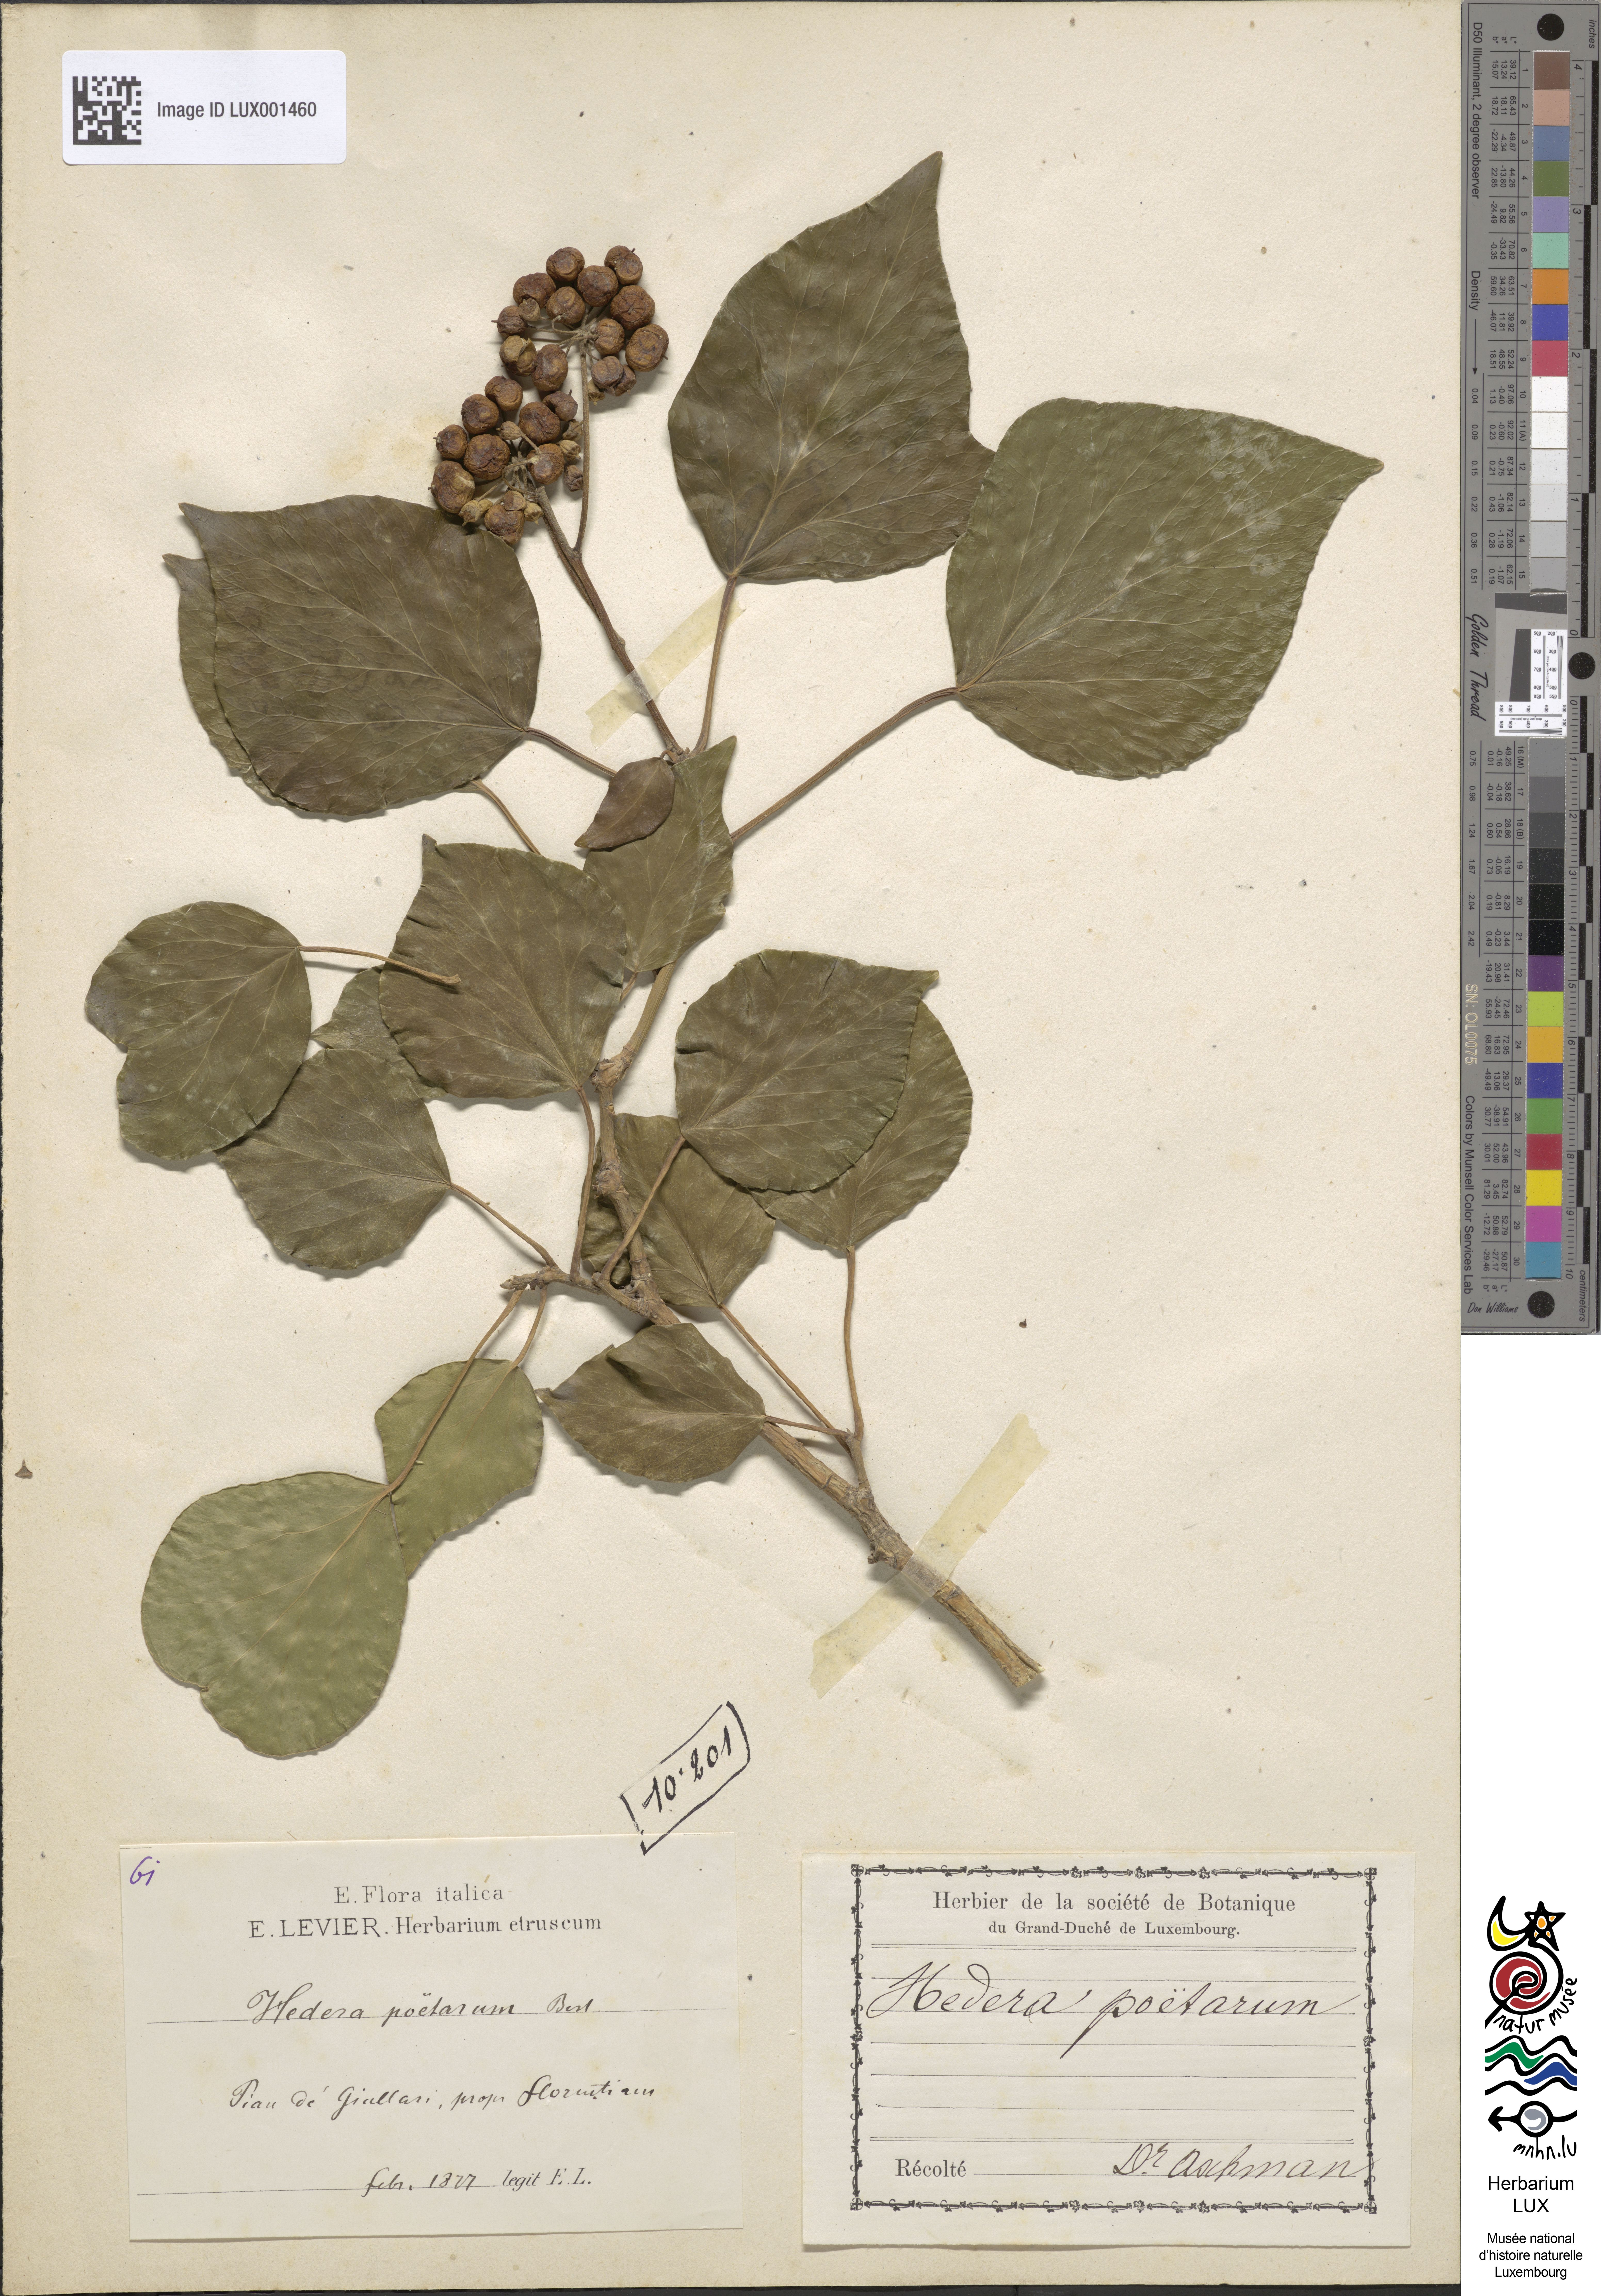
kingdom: Plantae
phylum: Tracheophyta
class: Magnoliopsida
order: Apiales
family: Araliaceae
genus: Hedera
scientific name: Hedera helix
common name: Ivy
